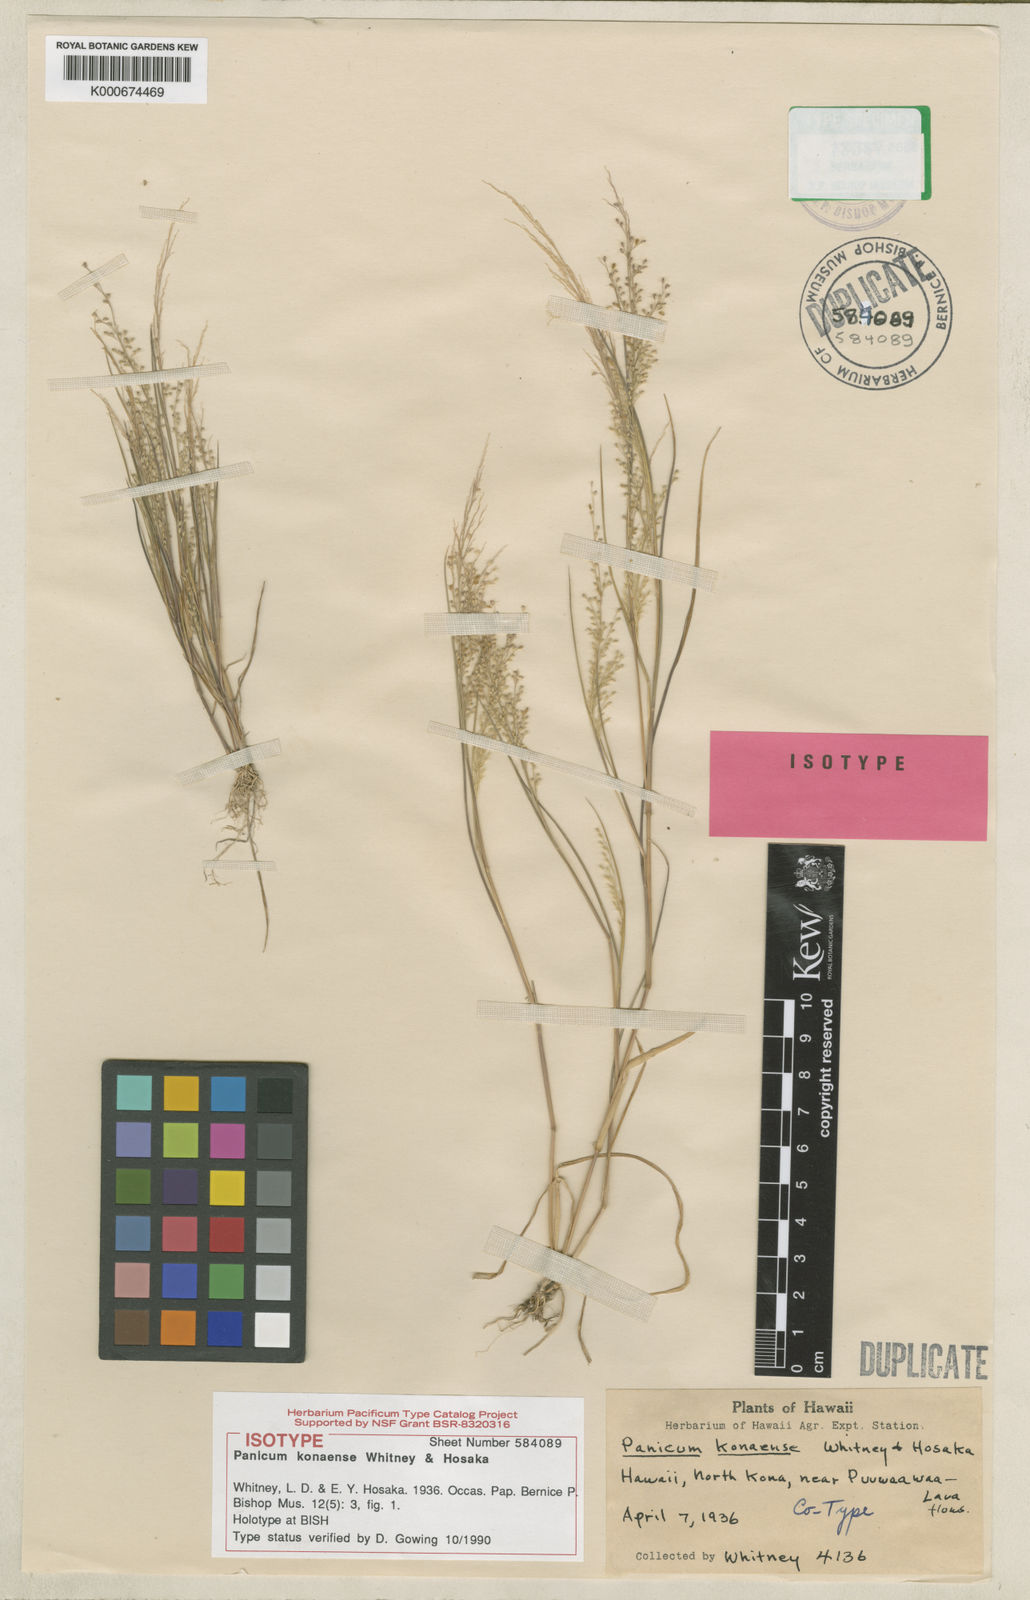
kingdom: Plantae
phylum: Tracheophyta
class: Liliopsida
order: Poales
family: Poaceae
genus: Panicum
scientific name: Panicum konaense
